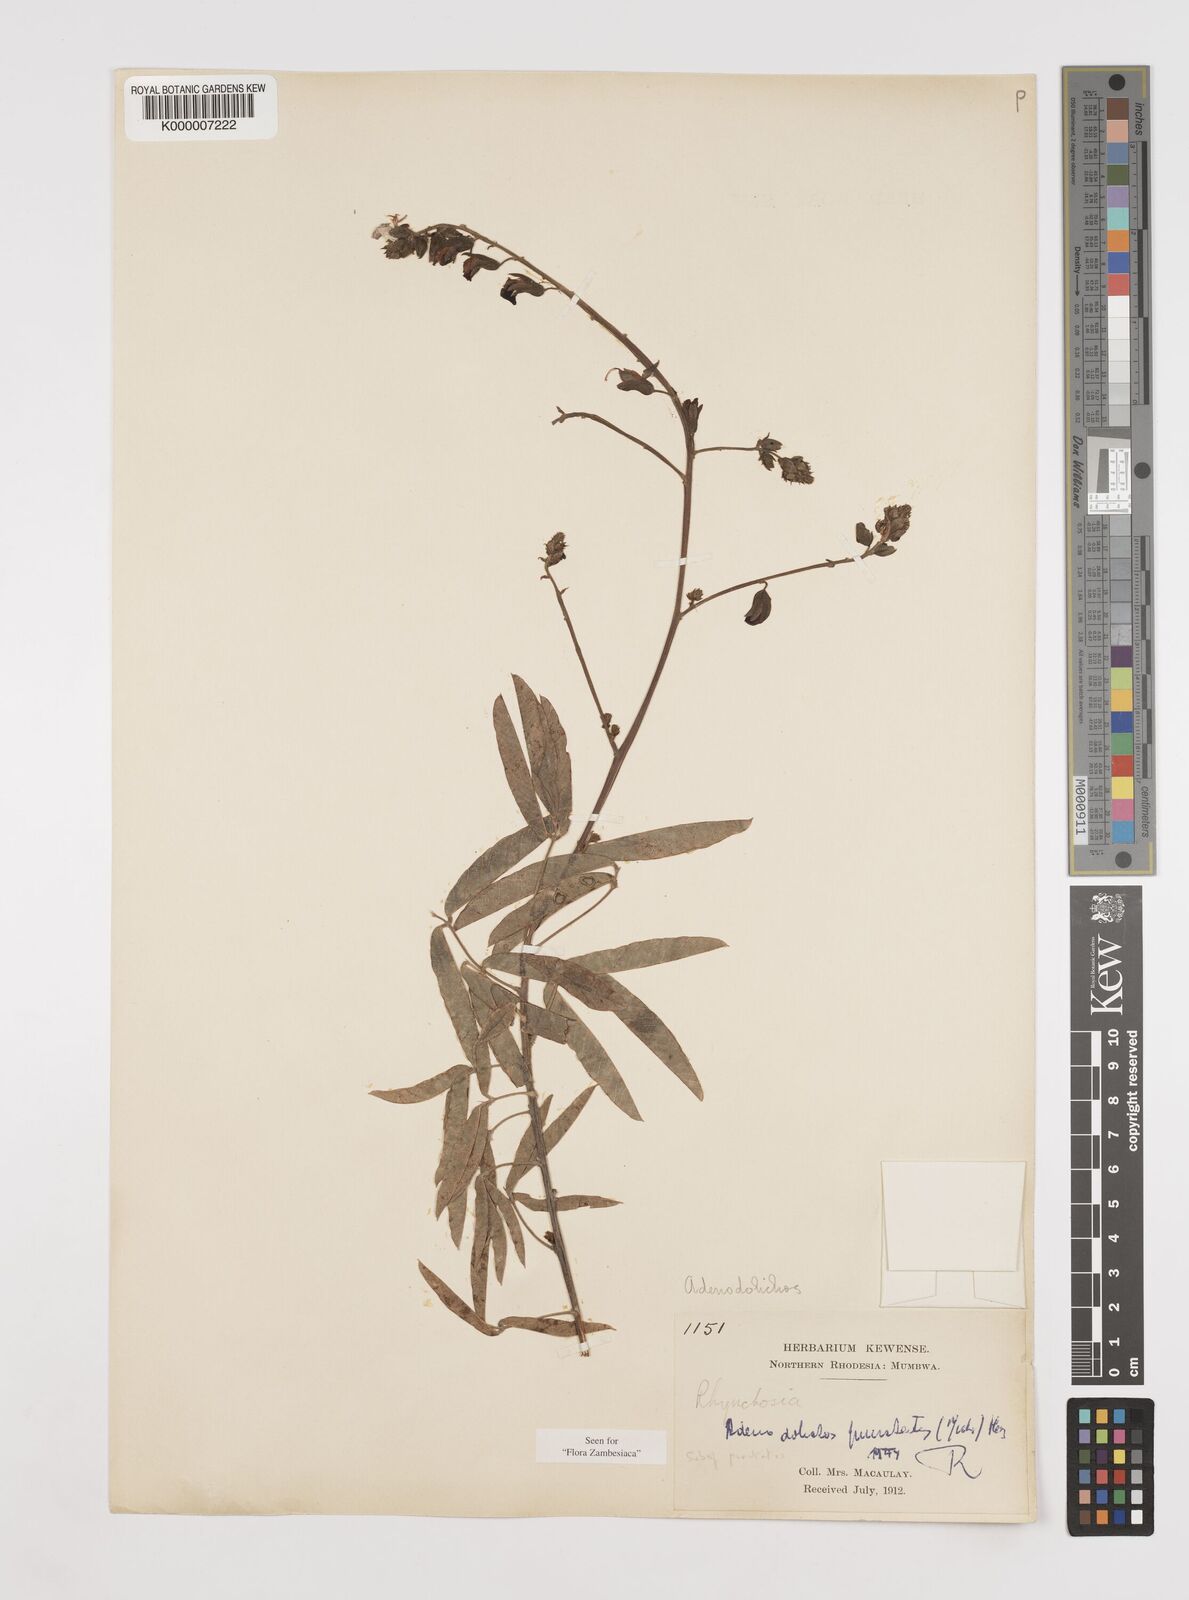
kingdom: Plantae
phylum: Tracheophyta
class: Magnoliopsida
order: Fabales
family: Fabaceae
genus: Adenodolichos
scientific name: Adenodolichos punctatus
